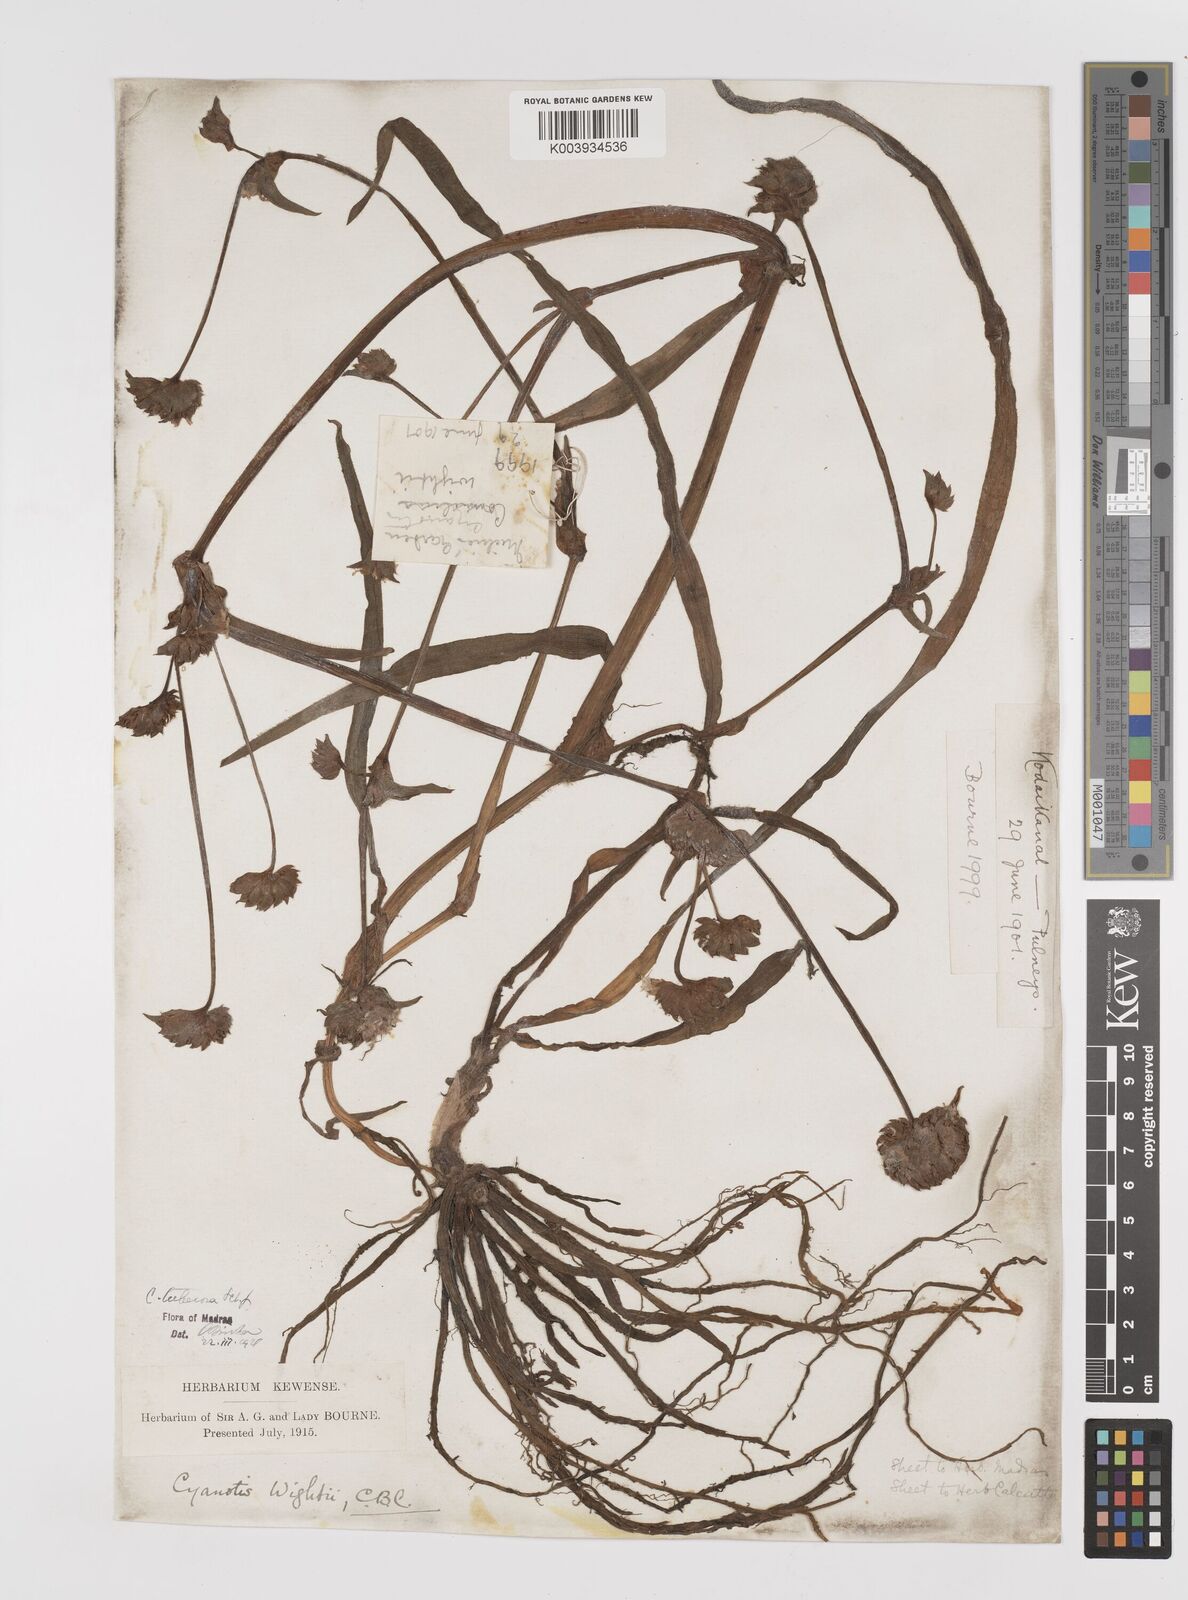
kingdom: Plantae
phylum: Tracheophyta
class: Liliopsida
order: Commelinales
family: Commelinaceae
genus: Cyanotis
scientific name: Cyanotis tuberosa
